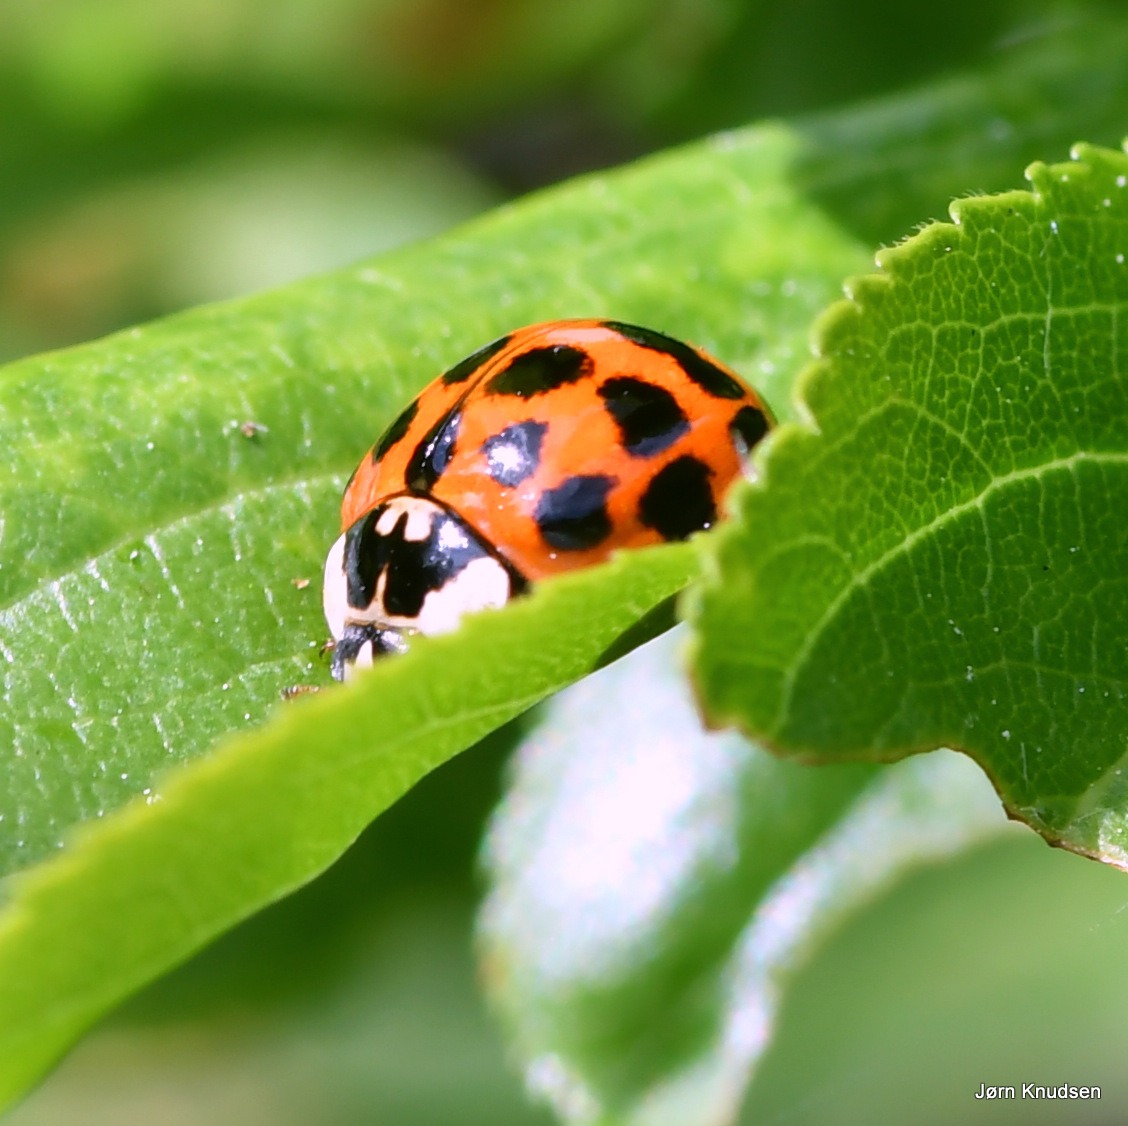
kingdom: Animalia
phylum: Arthropoda
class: Insecta
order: Coleoptera
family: Coccinellidae
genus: Harmonia
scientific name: Harmonia axyridis
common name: Harlekinmariehøne
